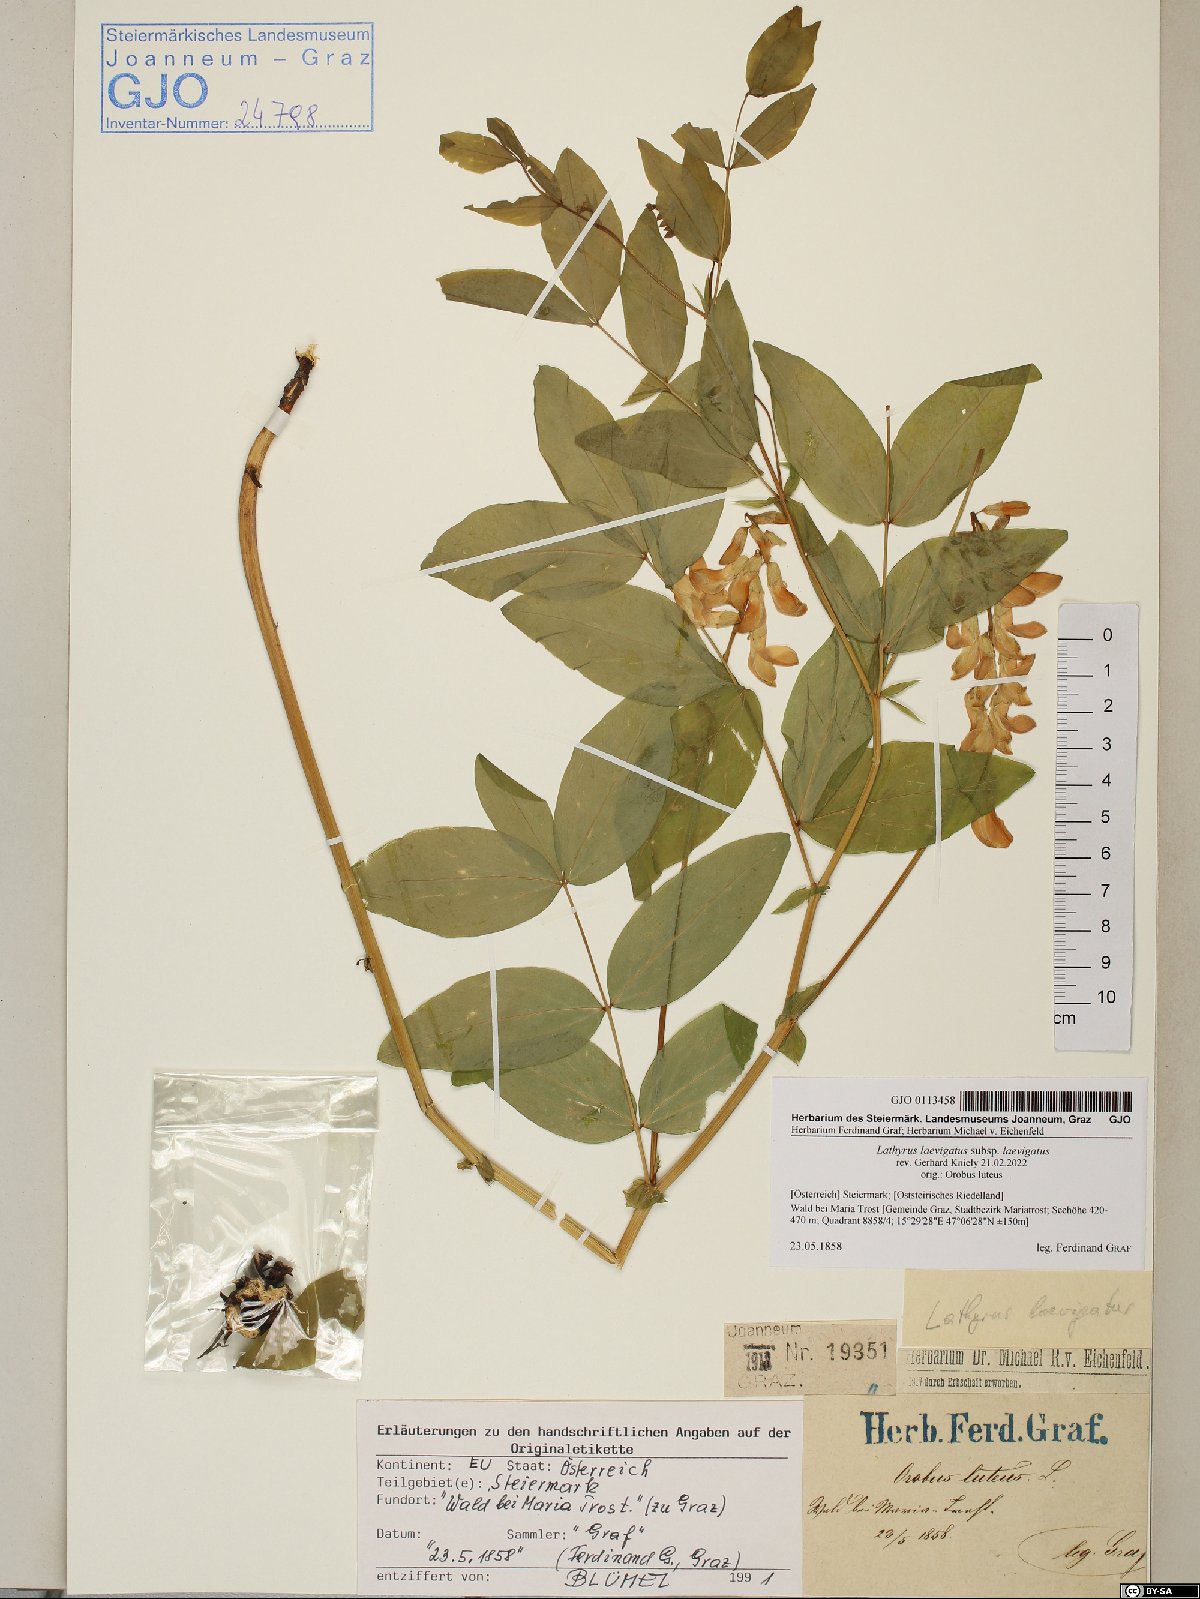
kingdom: Plantae
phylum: Tracheophyta
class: Magnoliopsida
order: Fabales
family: Fabaceae
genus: Lathyrus
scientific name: Lathyrus laevigatus
